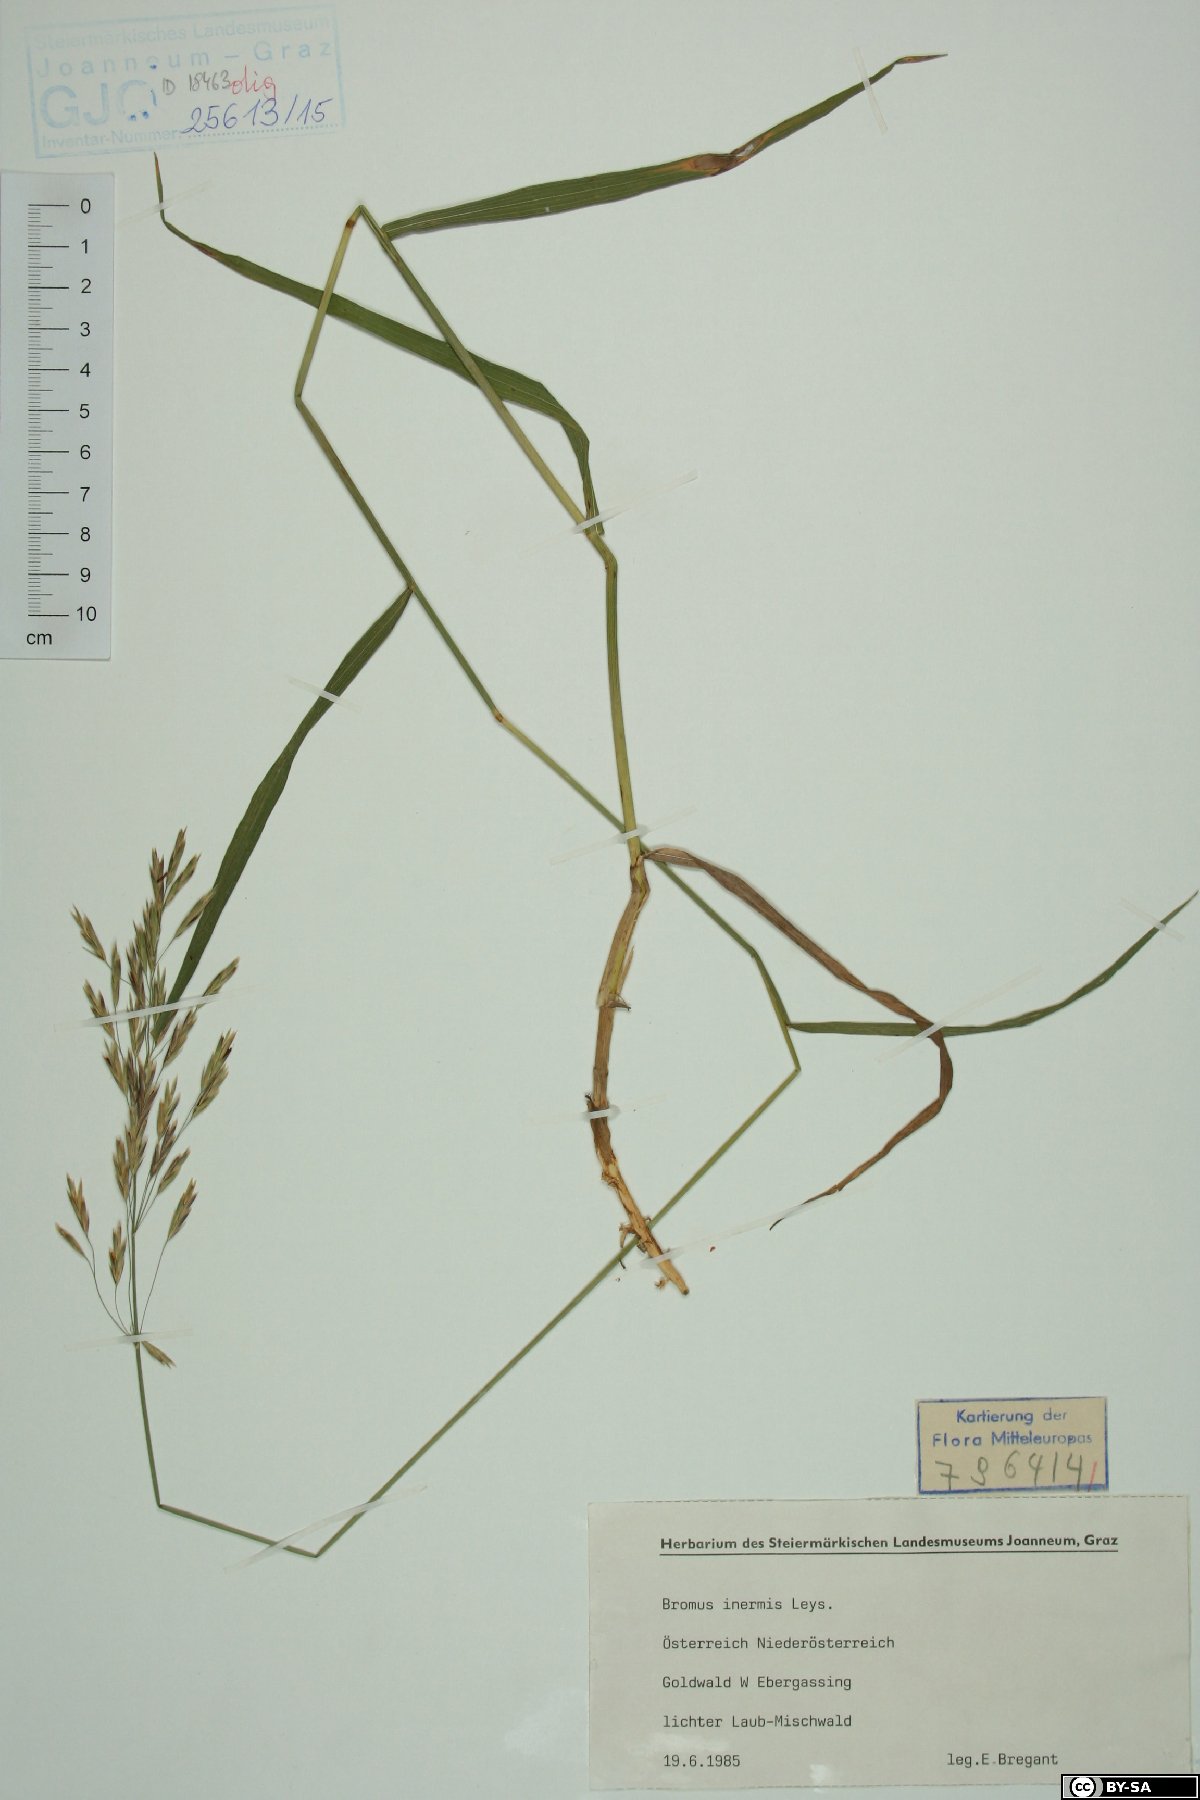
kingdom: Plantae
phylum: Tracheophyta
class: Liliopsida
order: Poales
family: Poaceae
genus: Bromus
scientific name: Bromus inermis
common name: Smooth brome
